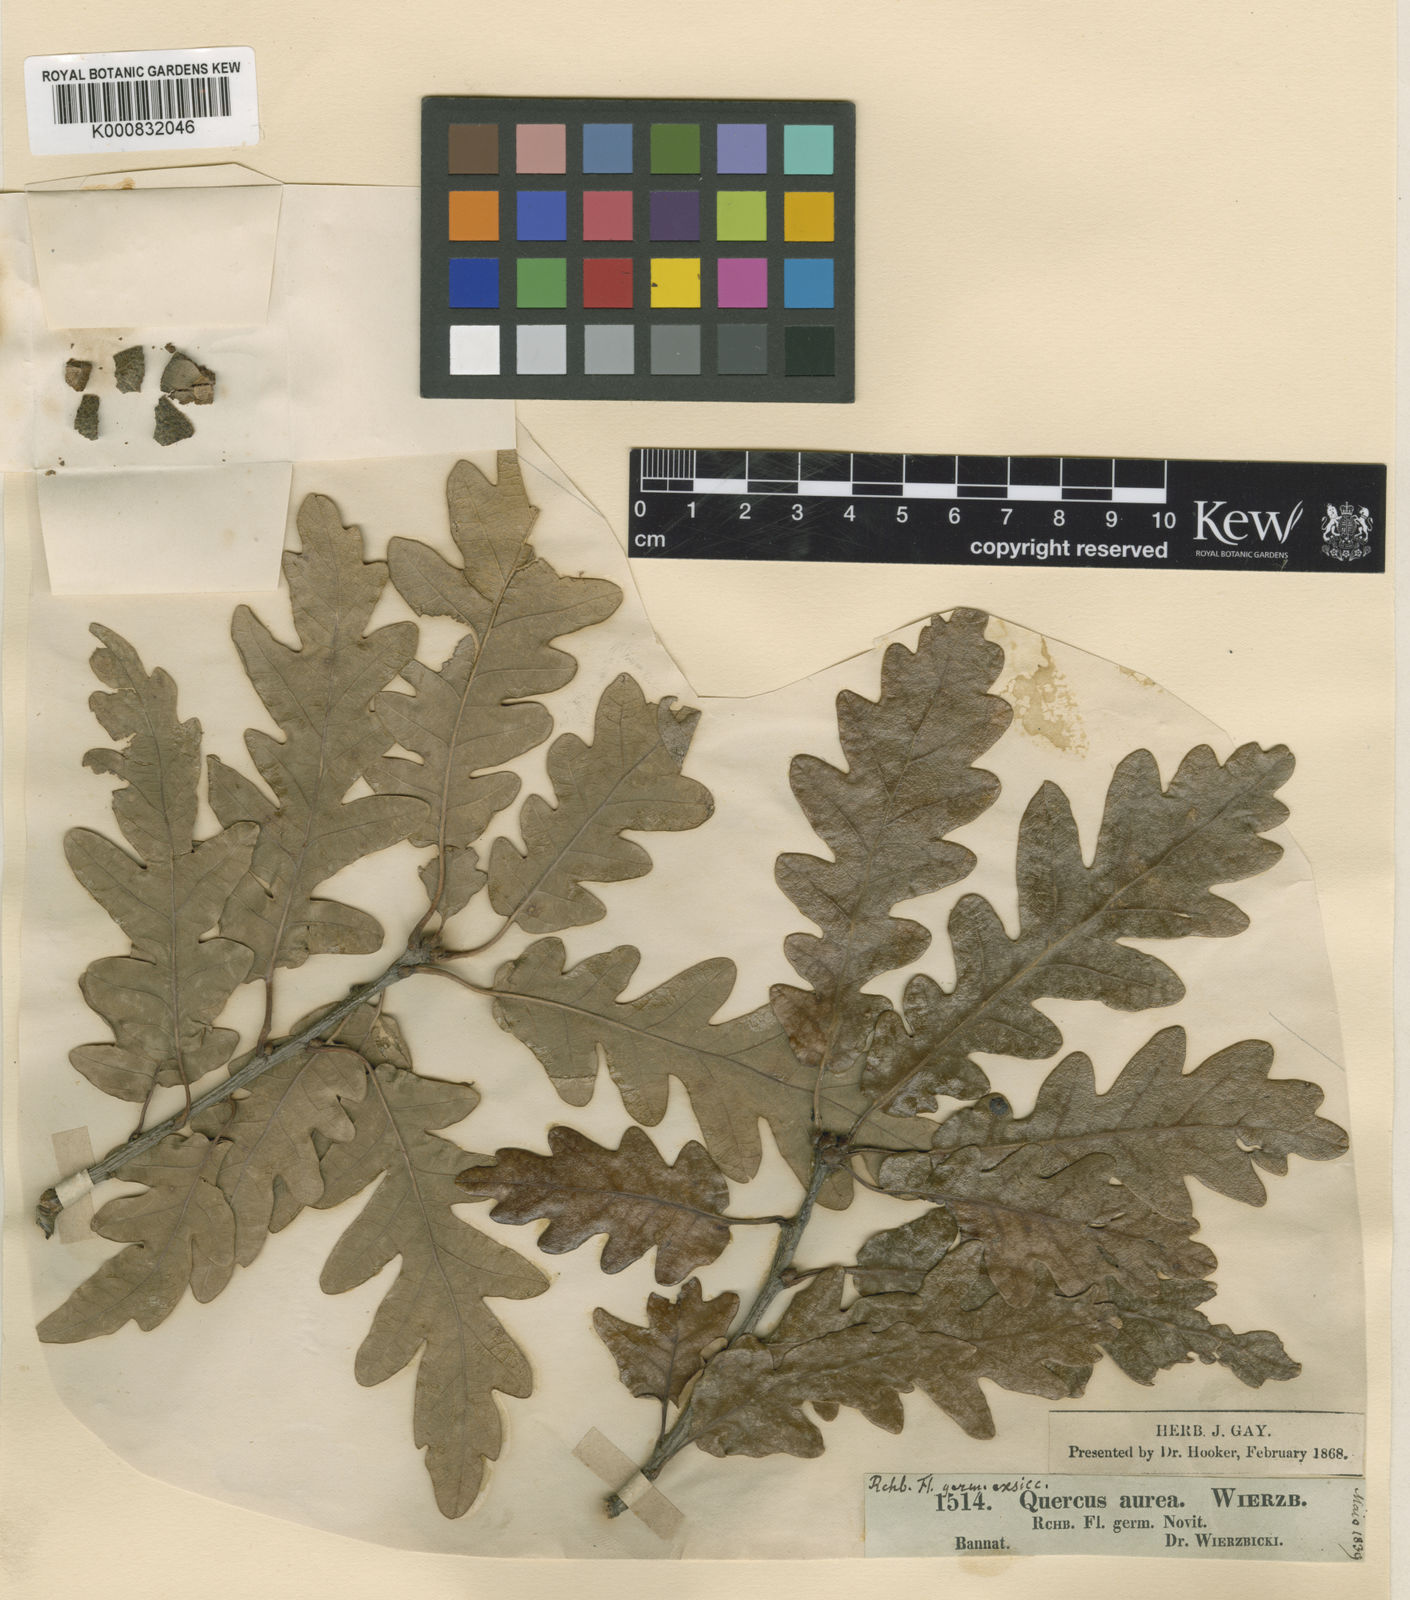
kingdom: Plantae
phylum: Tracheophyta
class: Magnoliopsida
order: Fagales
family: Fagaceae
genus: Quercus
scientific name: Quercus petraea
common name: Sessile oak
